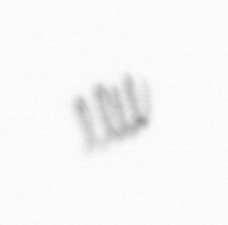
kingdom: Chromista
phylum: Ochrophyta
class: Bacillariophyceae
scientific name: Bacillariophyceae
